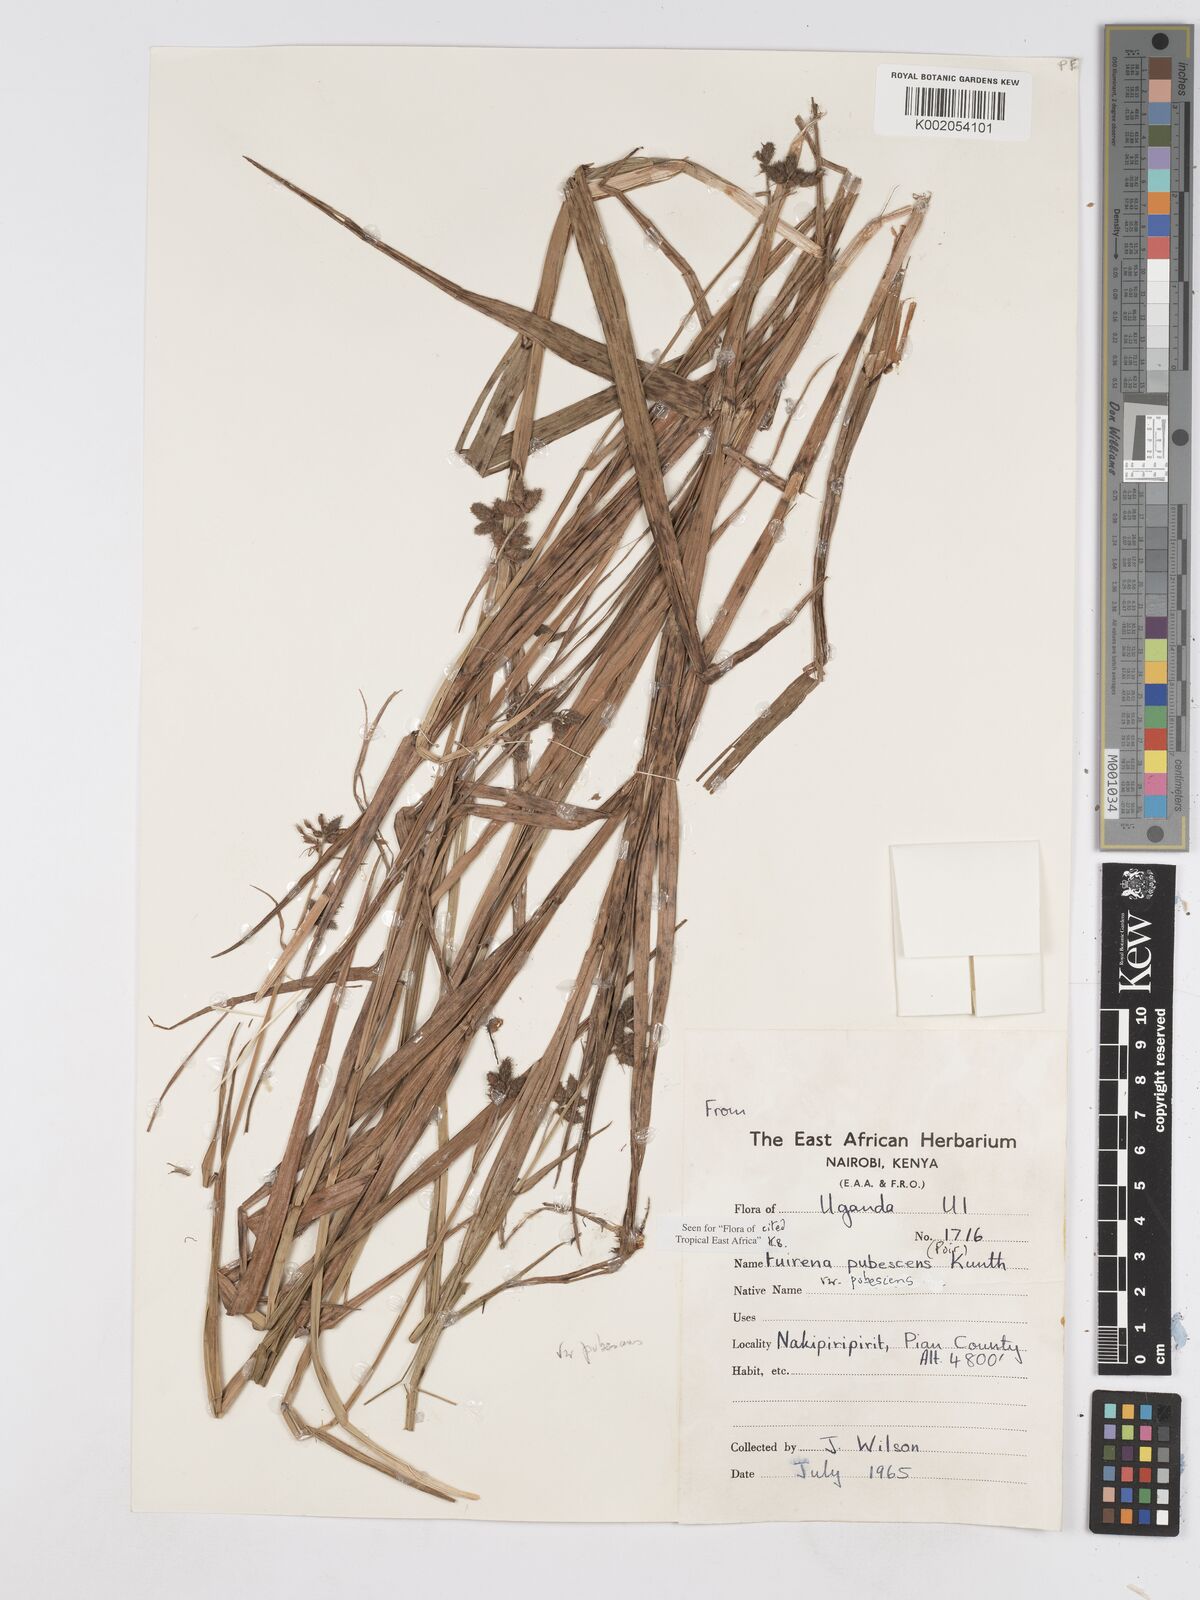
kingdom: Plantae
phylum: Tracheophyta
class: Liliopsida
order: Poales
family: Cyperaceae
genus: Fuirena
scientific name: Fuirena pubescens
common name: Hairy sedge
